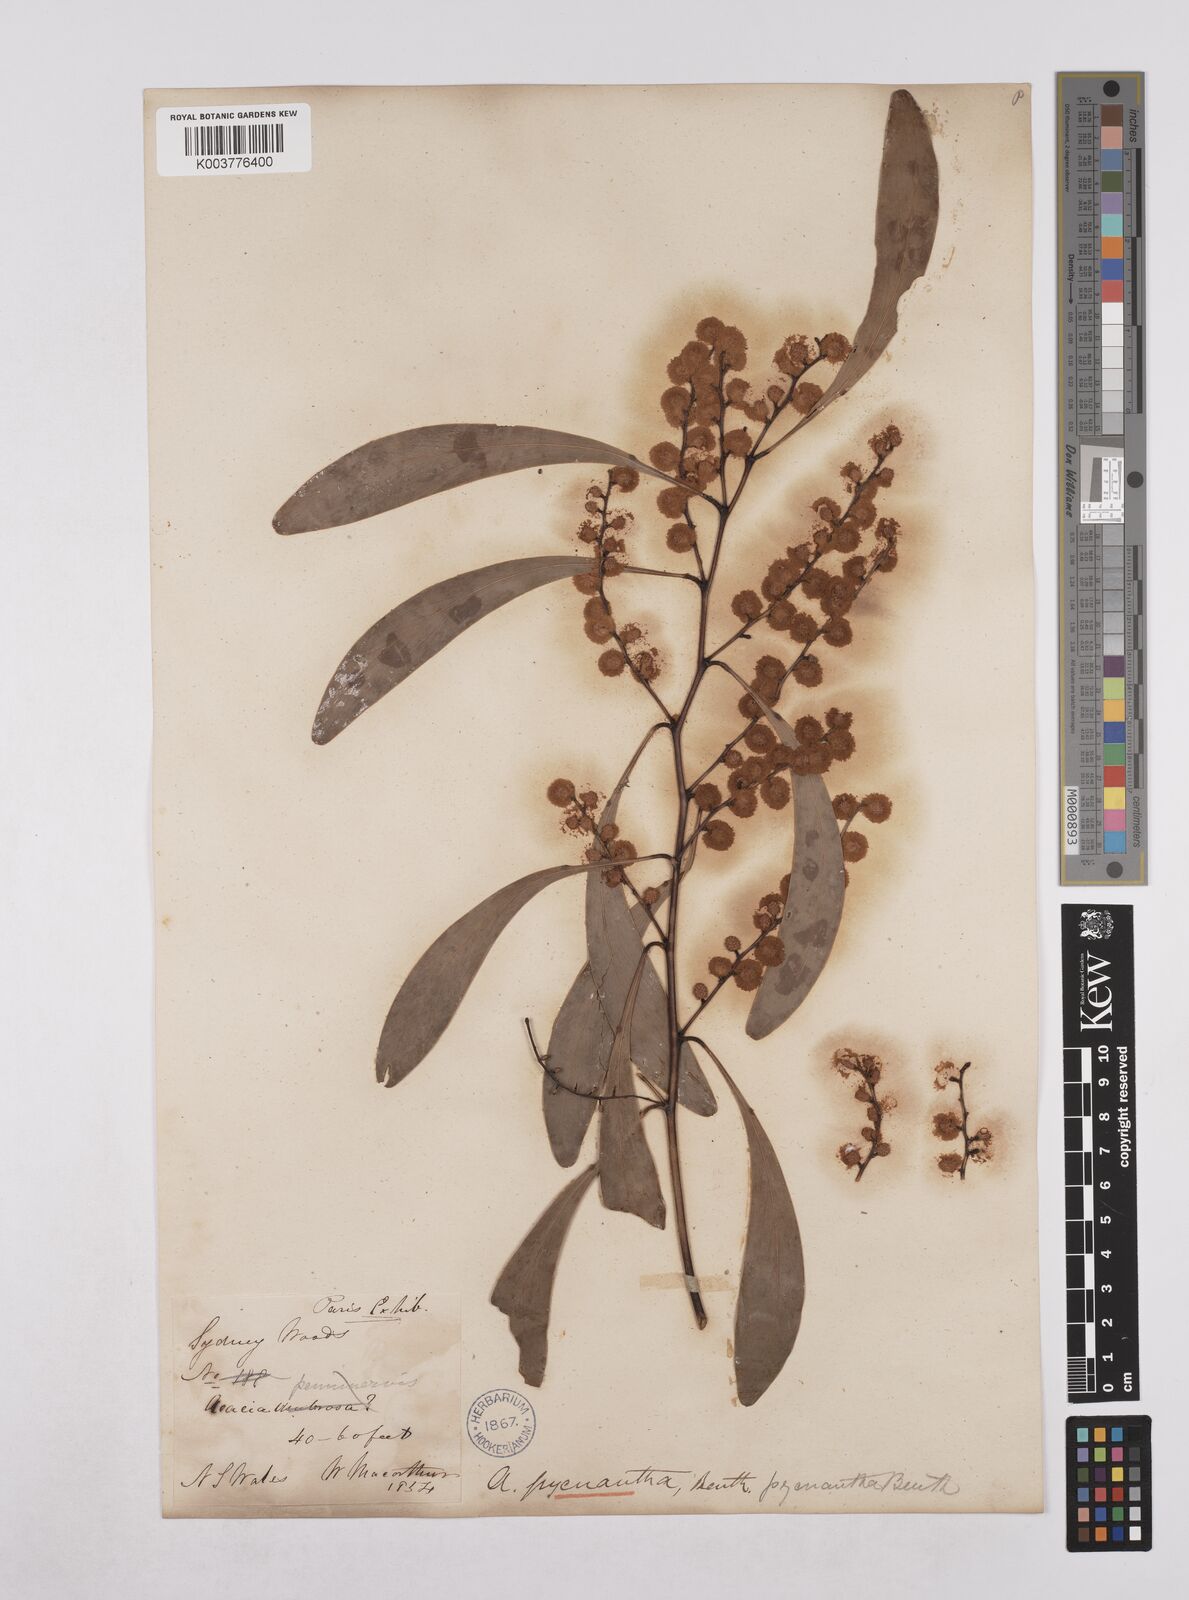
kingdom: Plantae
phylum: Tracheophyta
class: Magnoliopsida
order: Fabales
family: Fabaceae
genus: Acacia
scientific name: Acacia pycnantha
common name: Golden wattle
